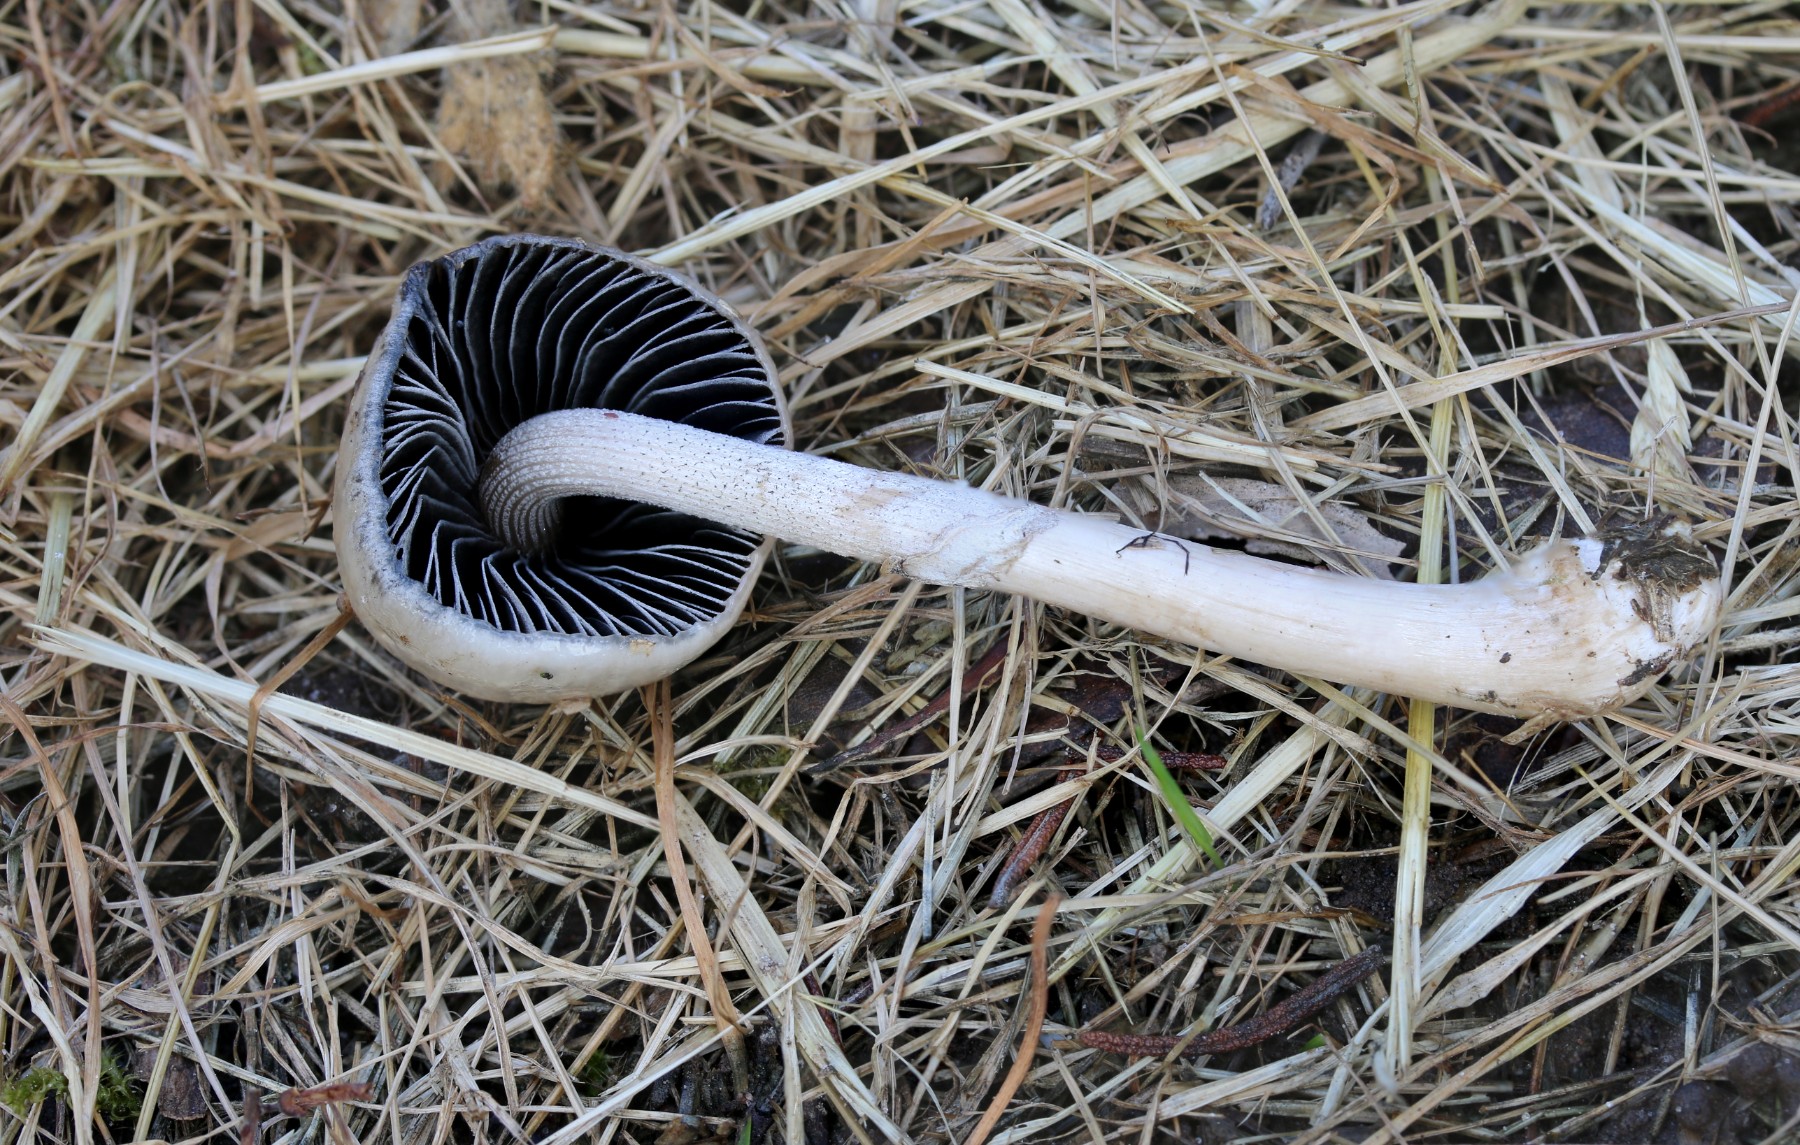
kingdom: Fungi
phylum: Basidiomycota
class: Agaricomycetes
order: Agaricales
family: Bolbitiaceae
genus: Panaeolus
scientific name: Panaeolus semiovatus
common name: ring-glanshat
